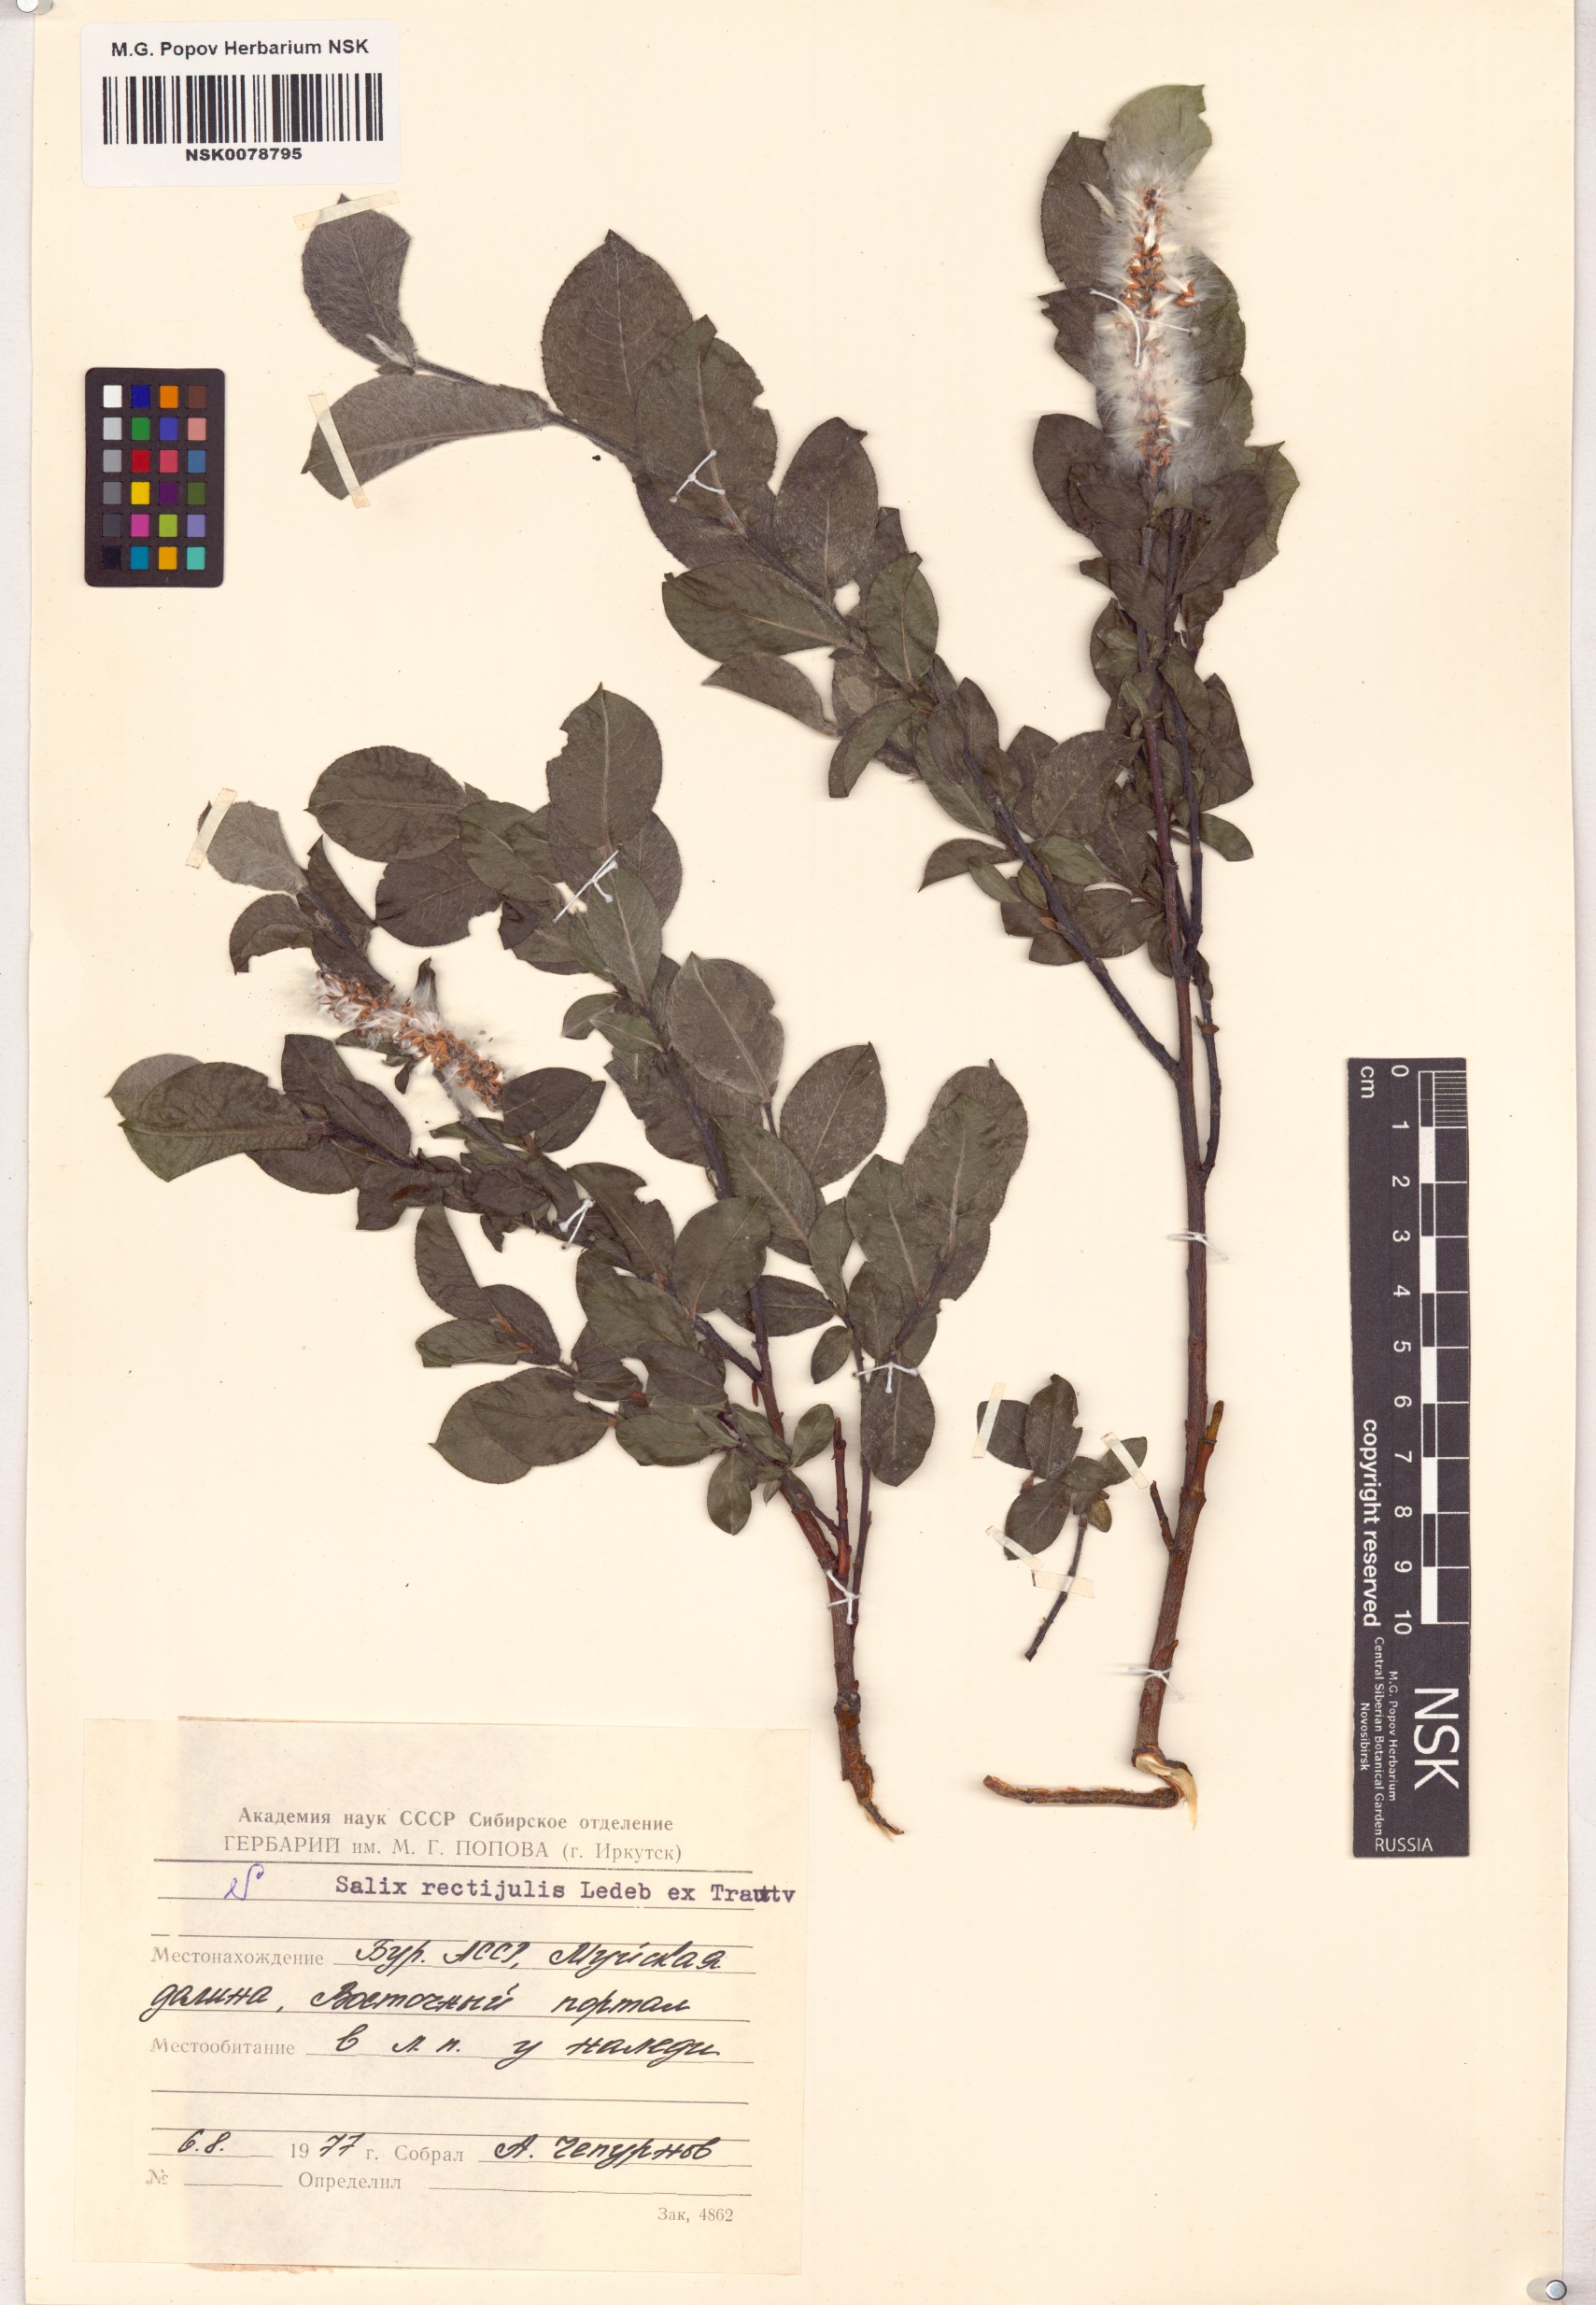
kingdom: Plantae
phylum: Tracheophyta
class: Magnoliopsida
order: Malpighiales
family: Salicaceae
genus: Salix
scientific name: Salix rectijulis
